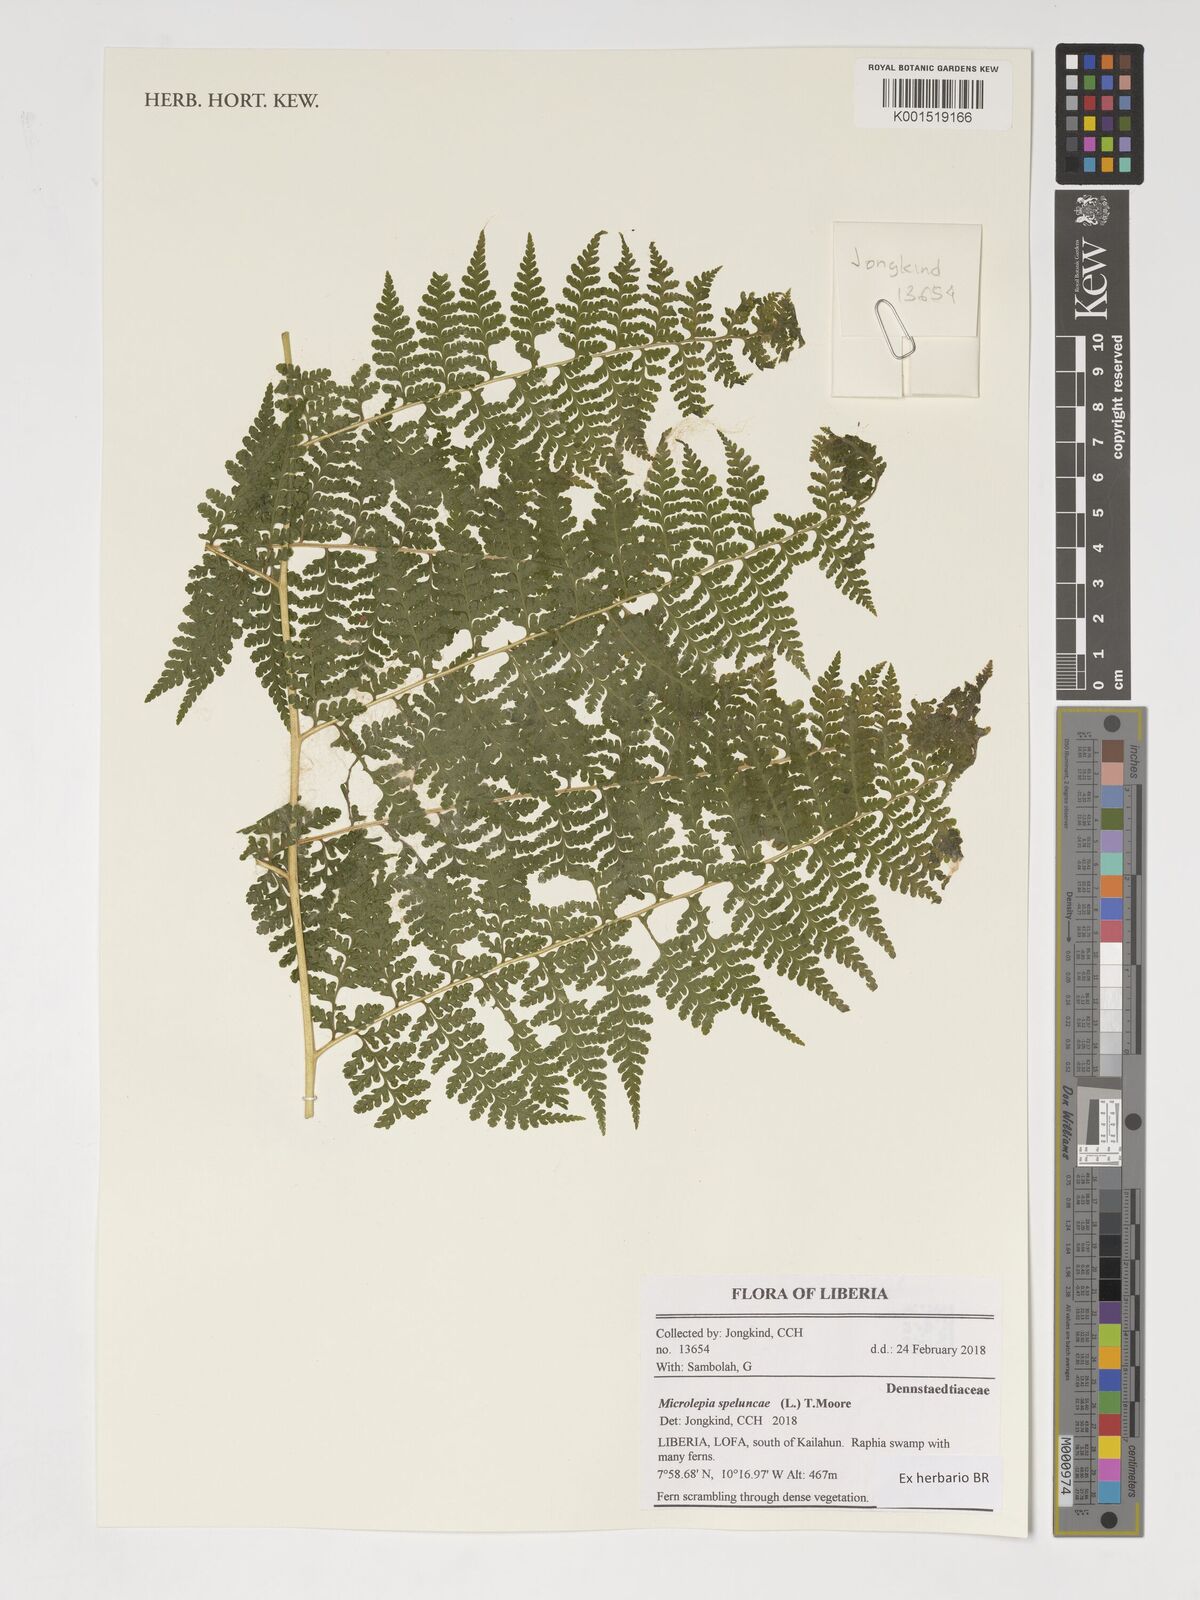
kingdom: Plantae
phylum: Tracheophyta
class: Polypodiopsida
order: Polypodiales
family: Dennstaedtiaceae
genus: Microlepia
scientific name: Microlepia speluncae
